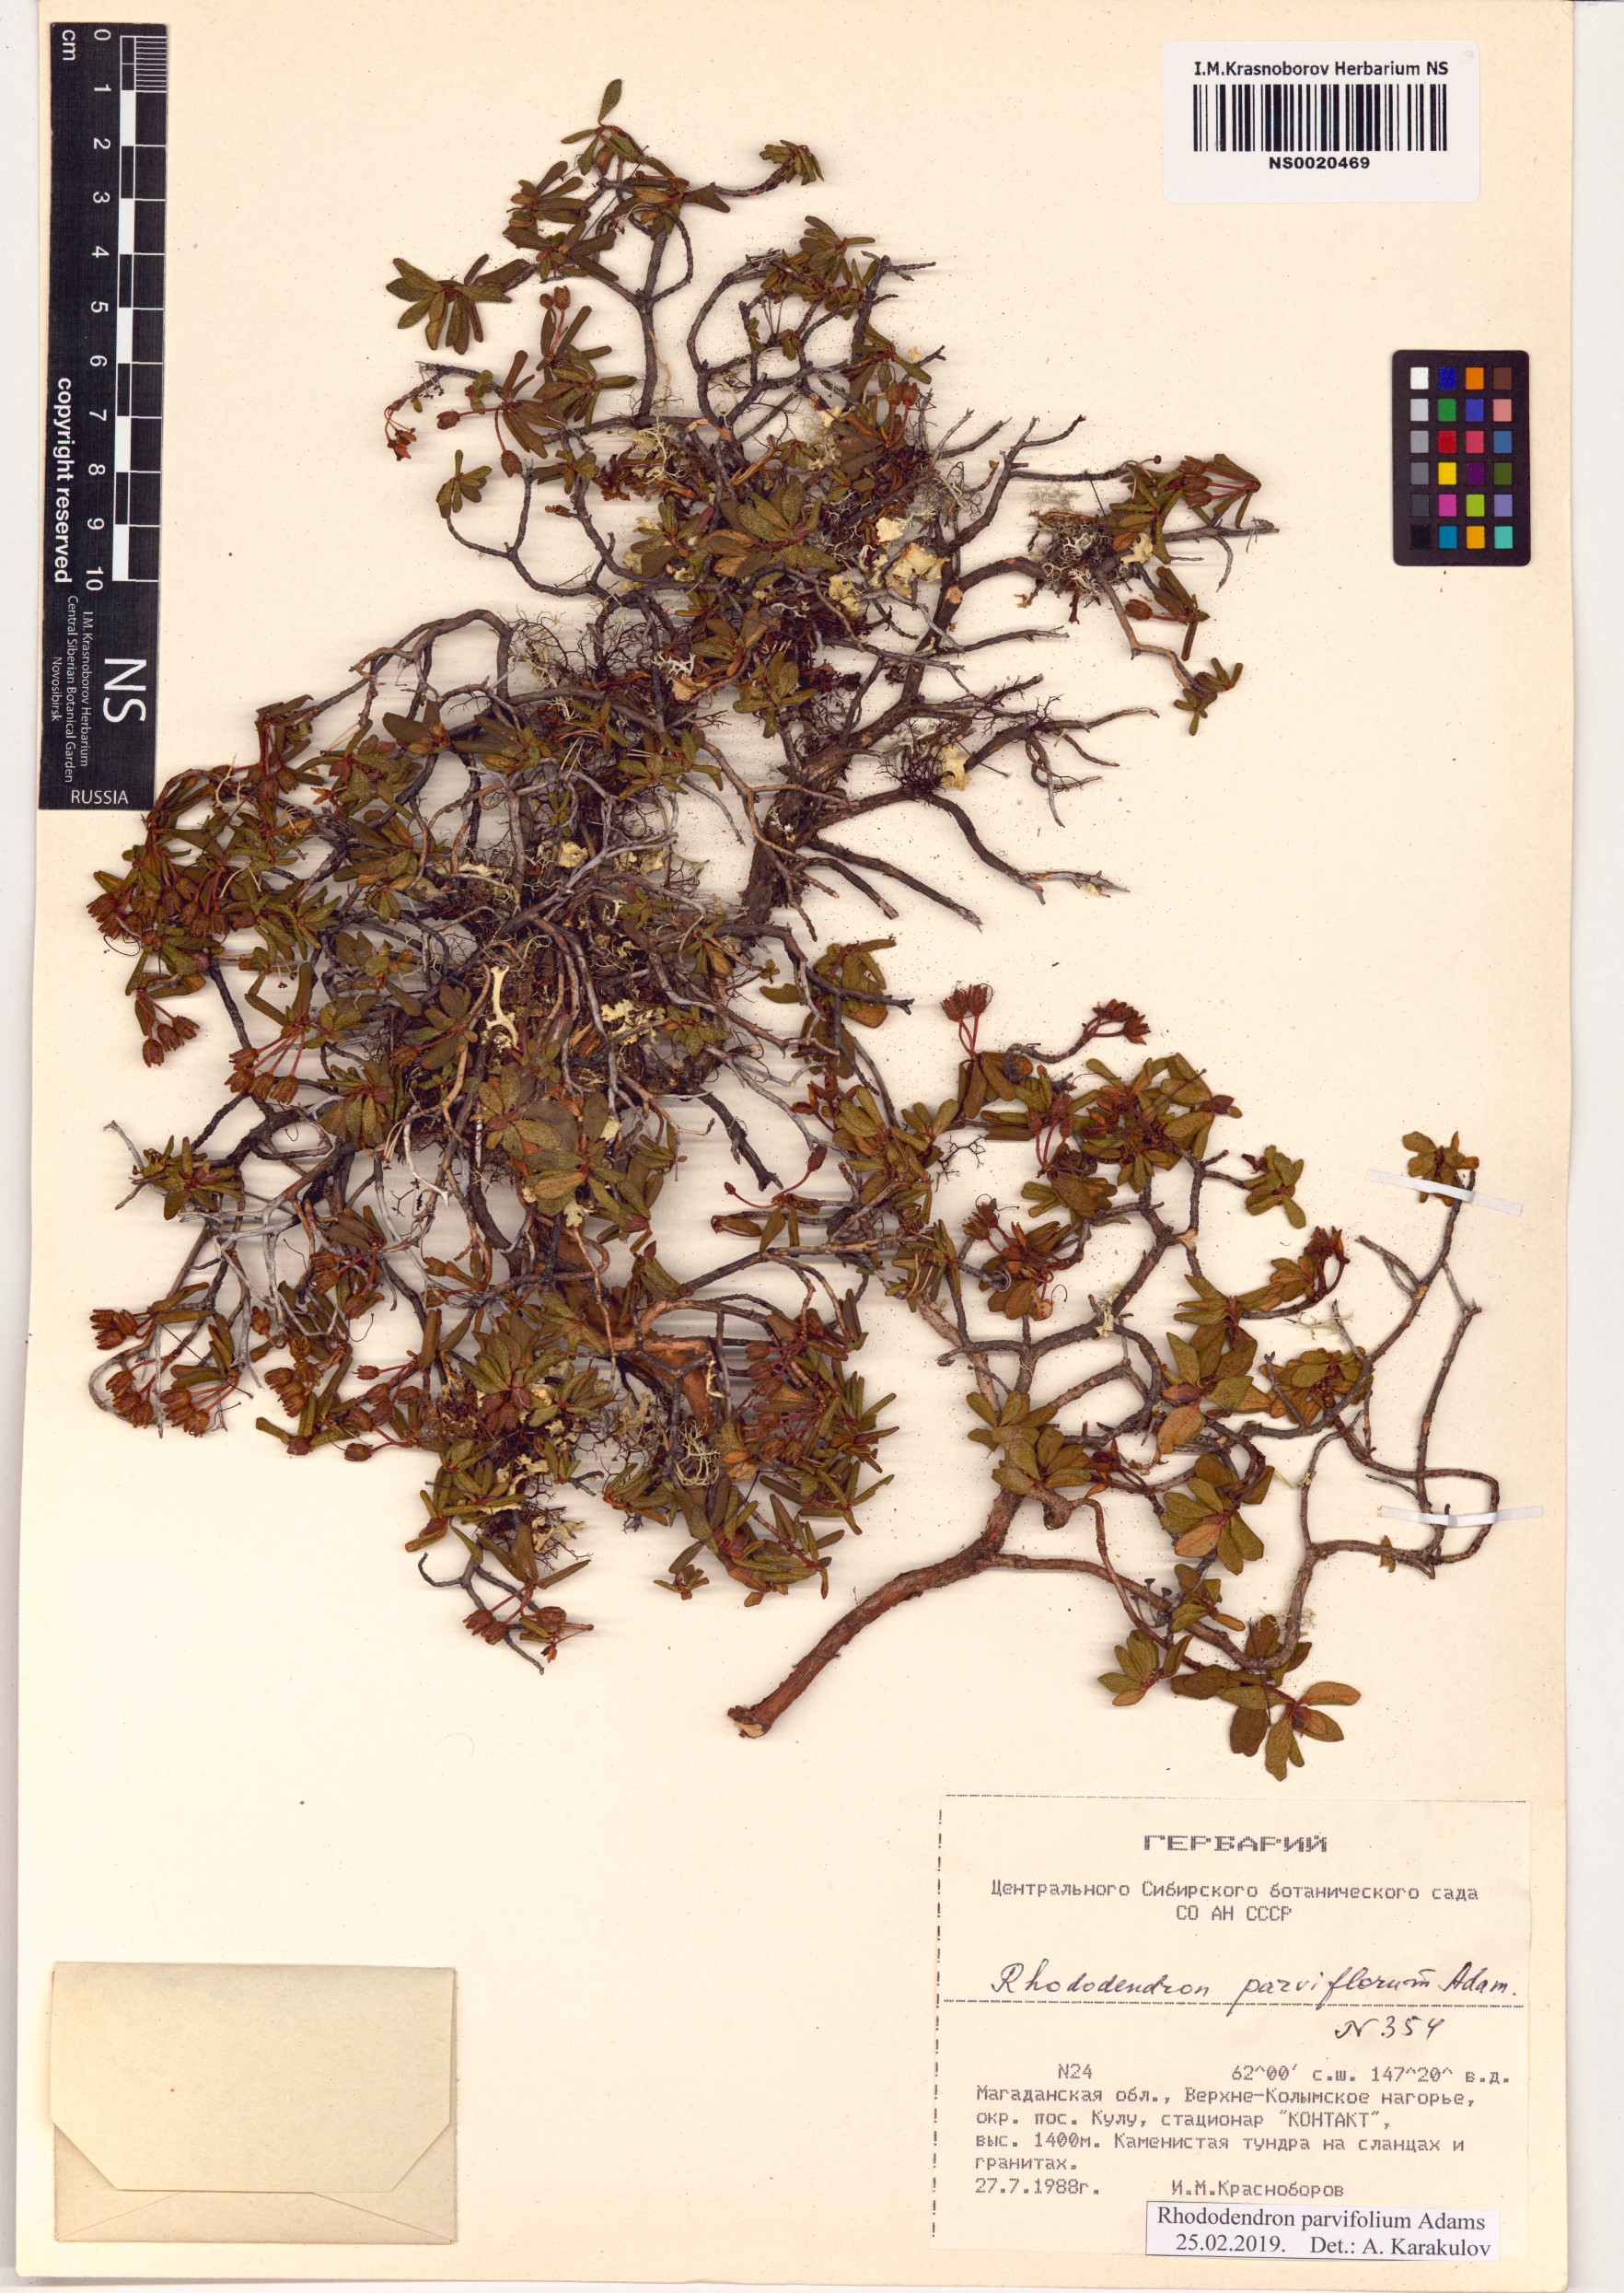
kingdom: Plantae
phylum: Tracheophyta
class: Magnoliopsida
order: Ericales
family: Ericaceae
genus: Rhododendron
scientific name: Rhododendron parvifolium
